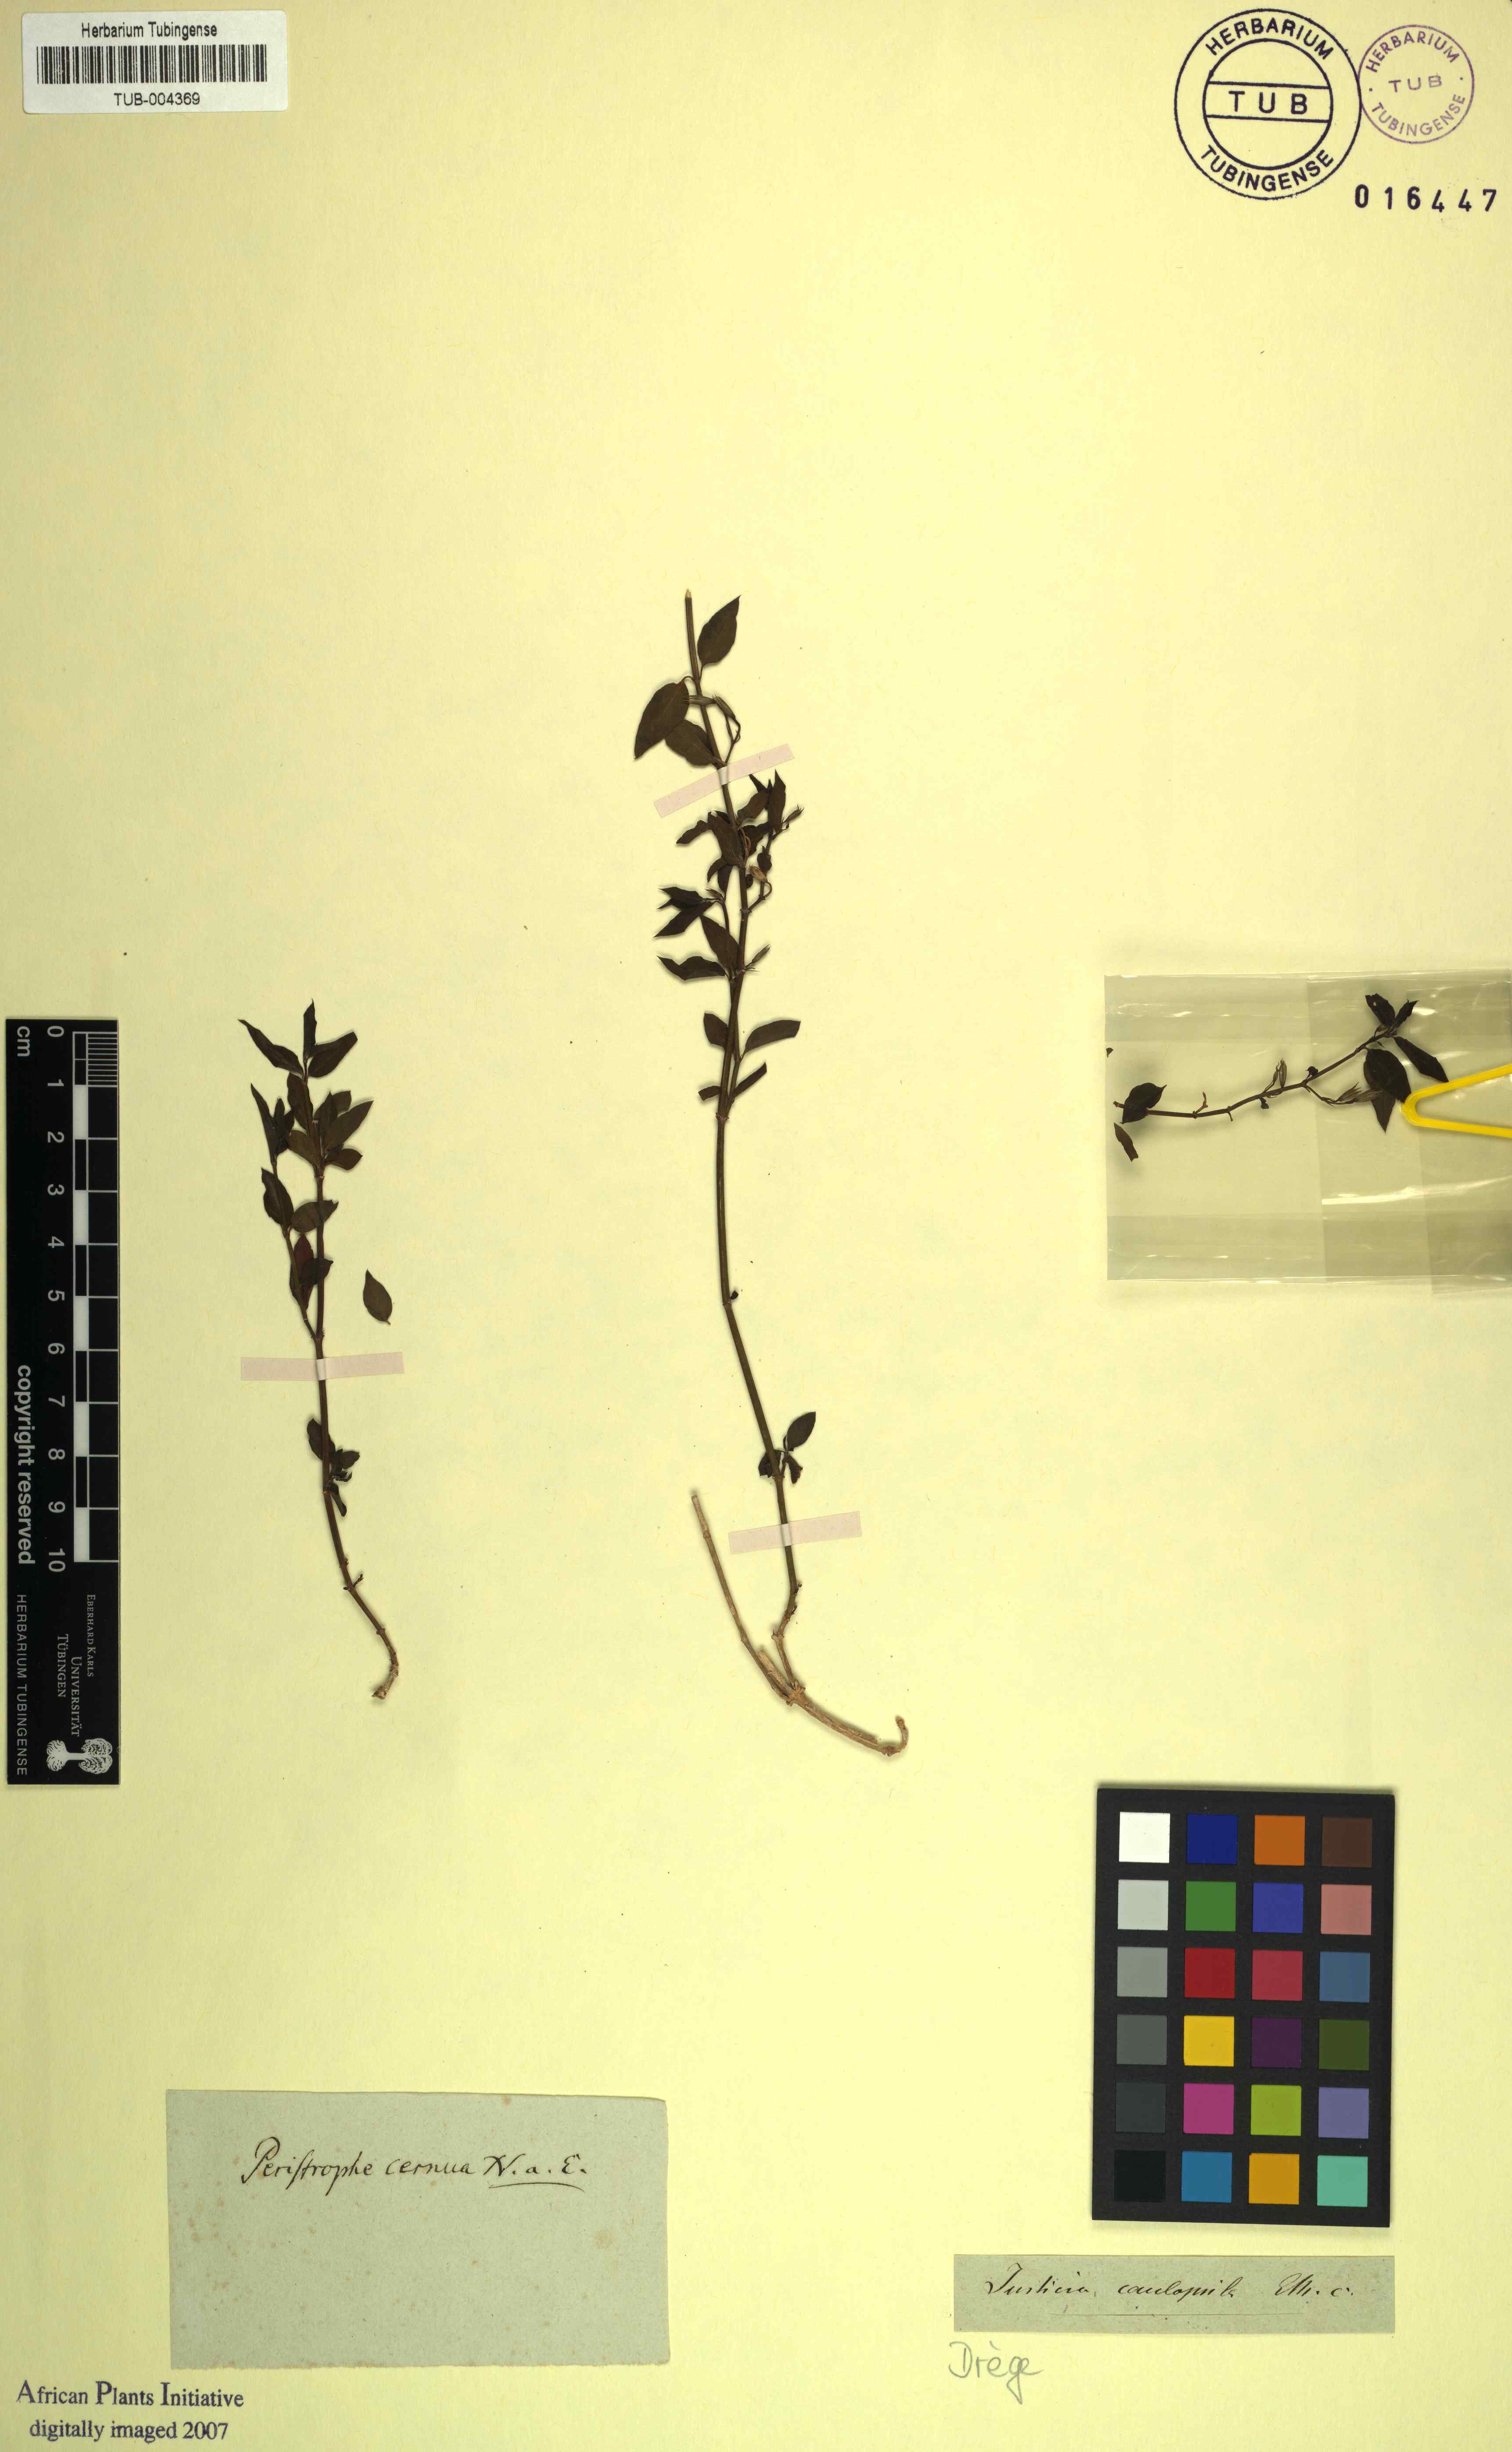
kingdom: Plantae
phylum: Tracheophyta
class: Magnoliopsida
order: Lamiales
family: Acanthaceae
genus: Dicliptera
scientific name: Dicliptera cernua
